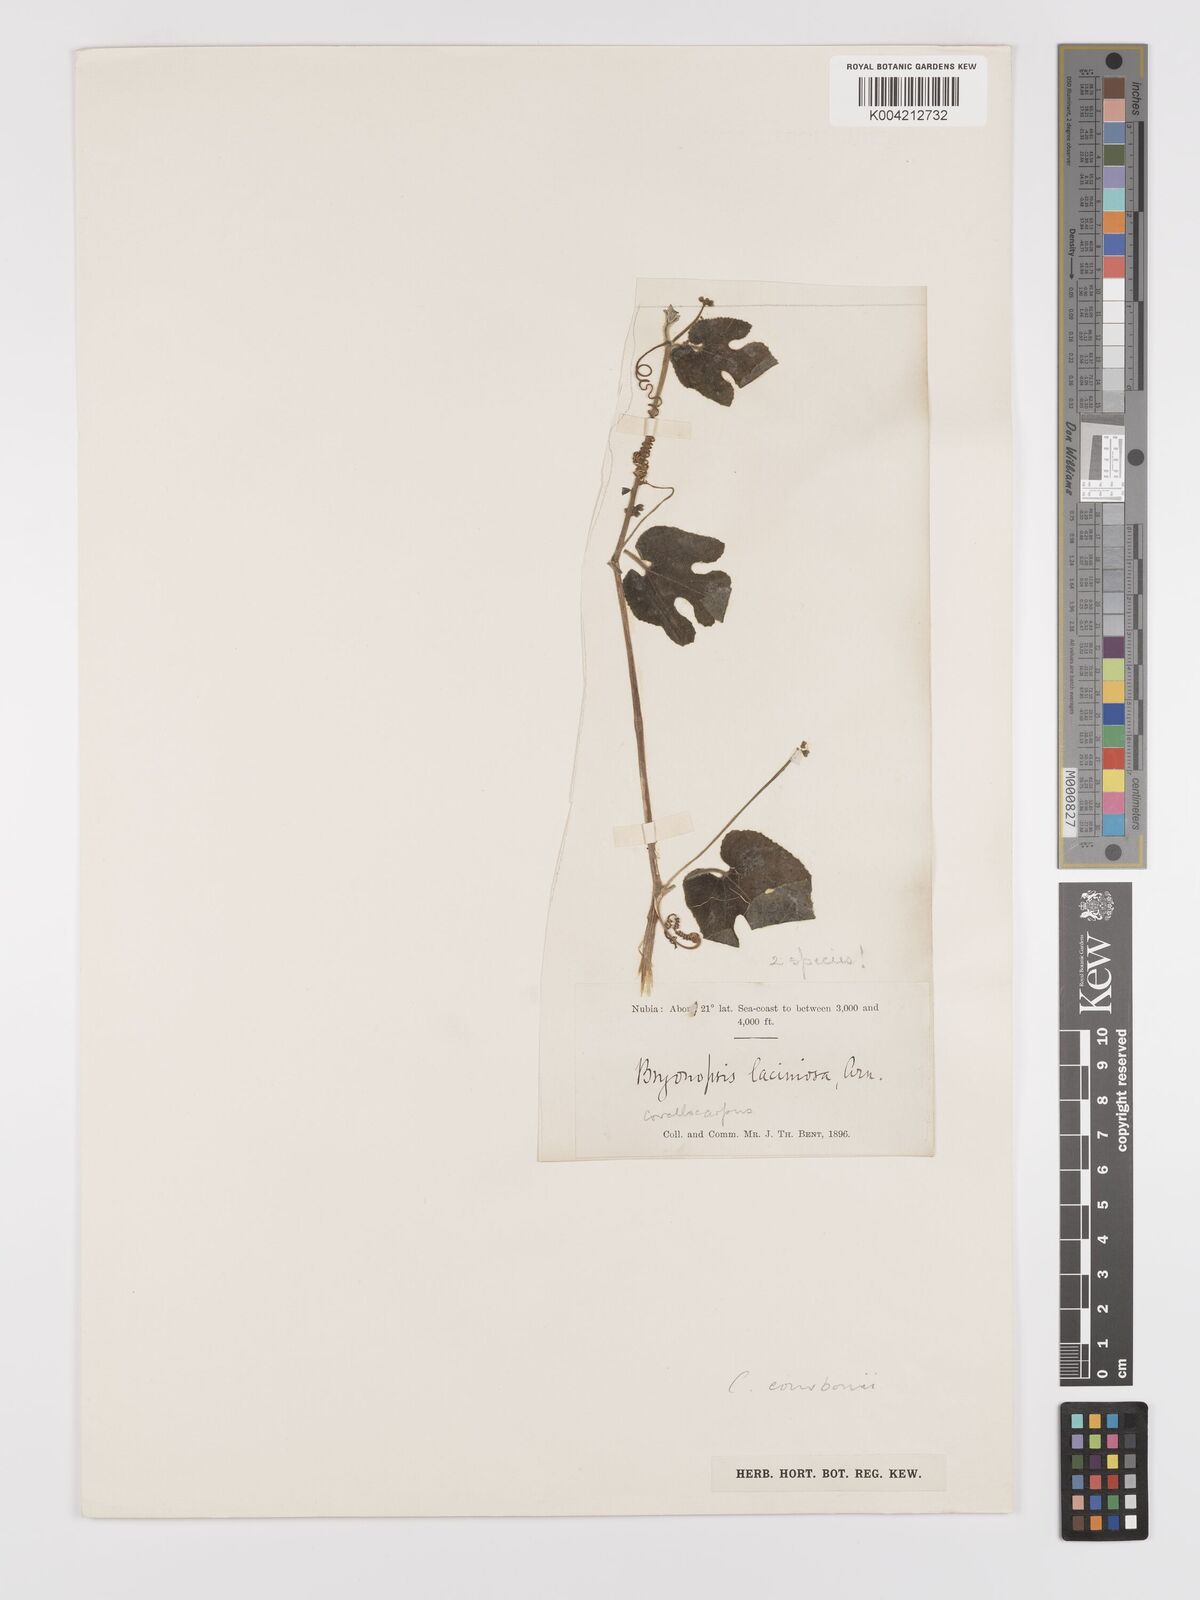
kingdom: Plantae
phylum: Tracheophyta
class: Magnoliopsida
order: Cucurbitales
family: Cucurbitaceae
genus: Corallocarpus
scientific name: Corallocarpus schimperi
